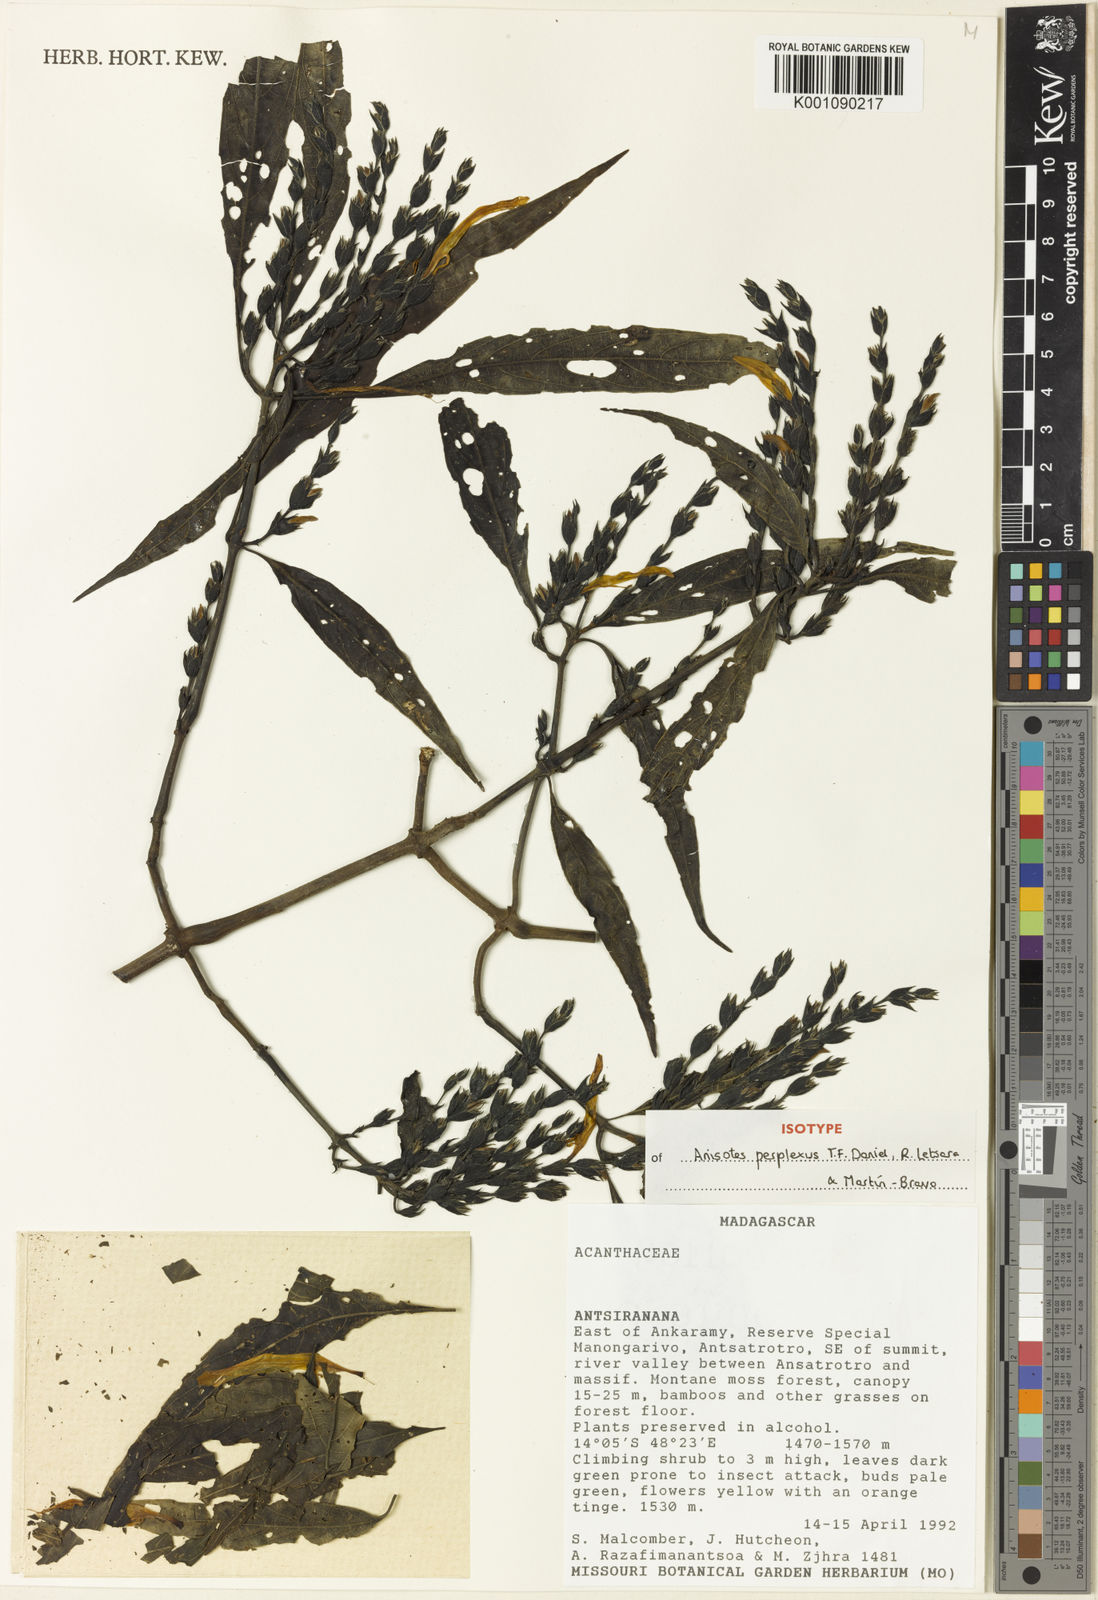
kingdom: Plantae
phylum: Tracheophyta
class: Magnoliopsida
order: Lamiales
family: Acanthaceae
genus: Anisotes
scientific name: Anisotes
